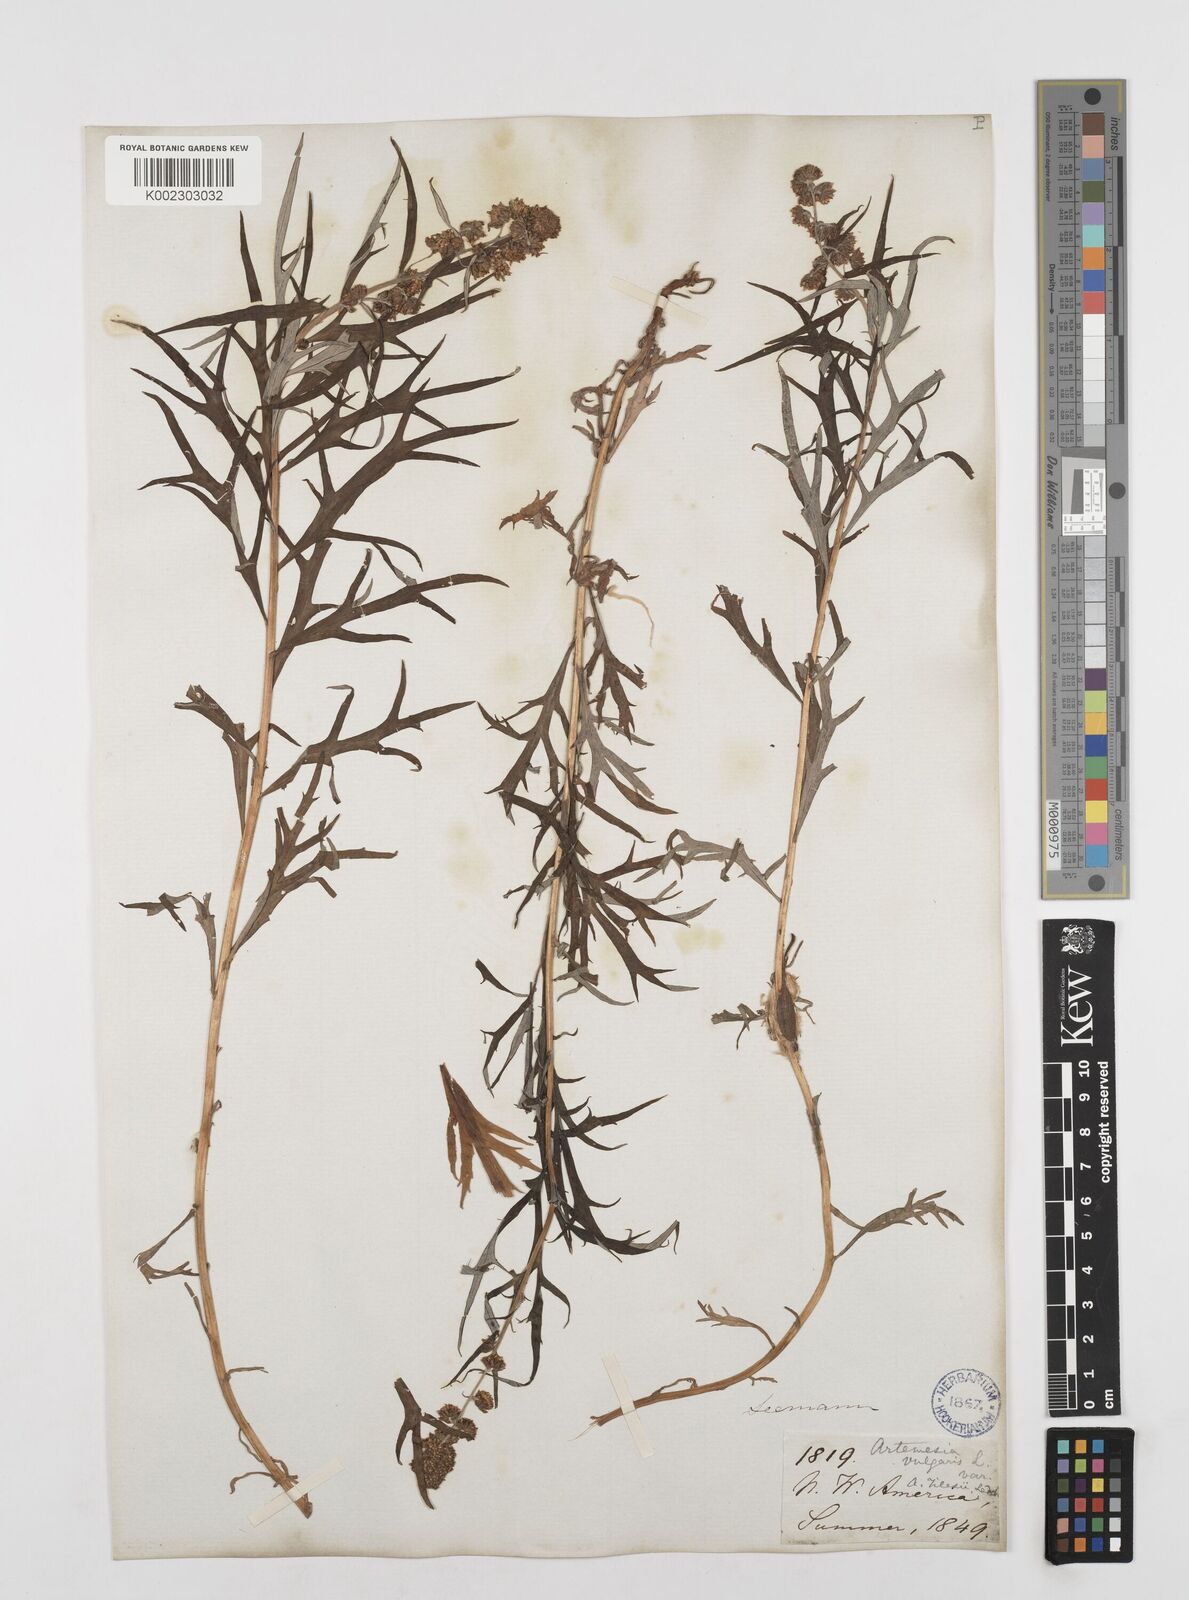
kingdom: Plantae
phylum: Tracheophyta
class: Magnoliopsida
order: Asterales
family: Asteraceae
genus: Artemisia
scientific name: Artemisia tilesii
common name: Aleutian mugwort
